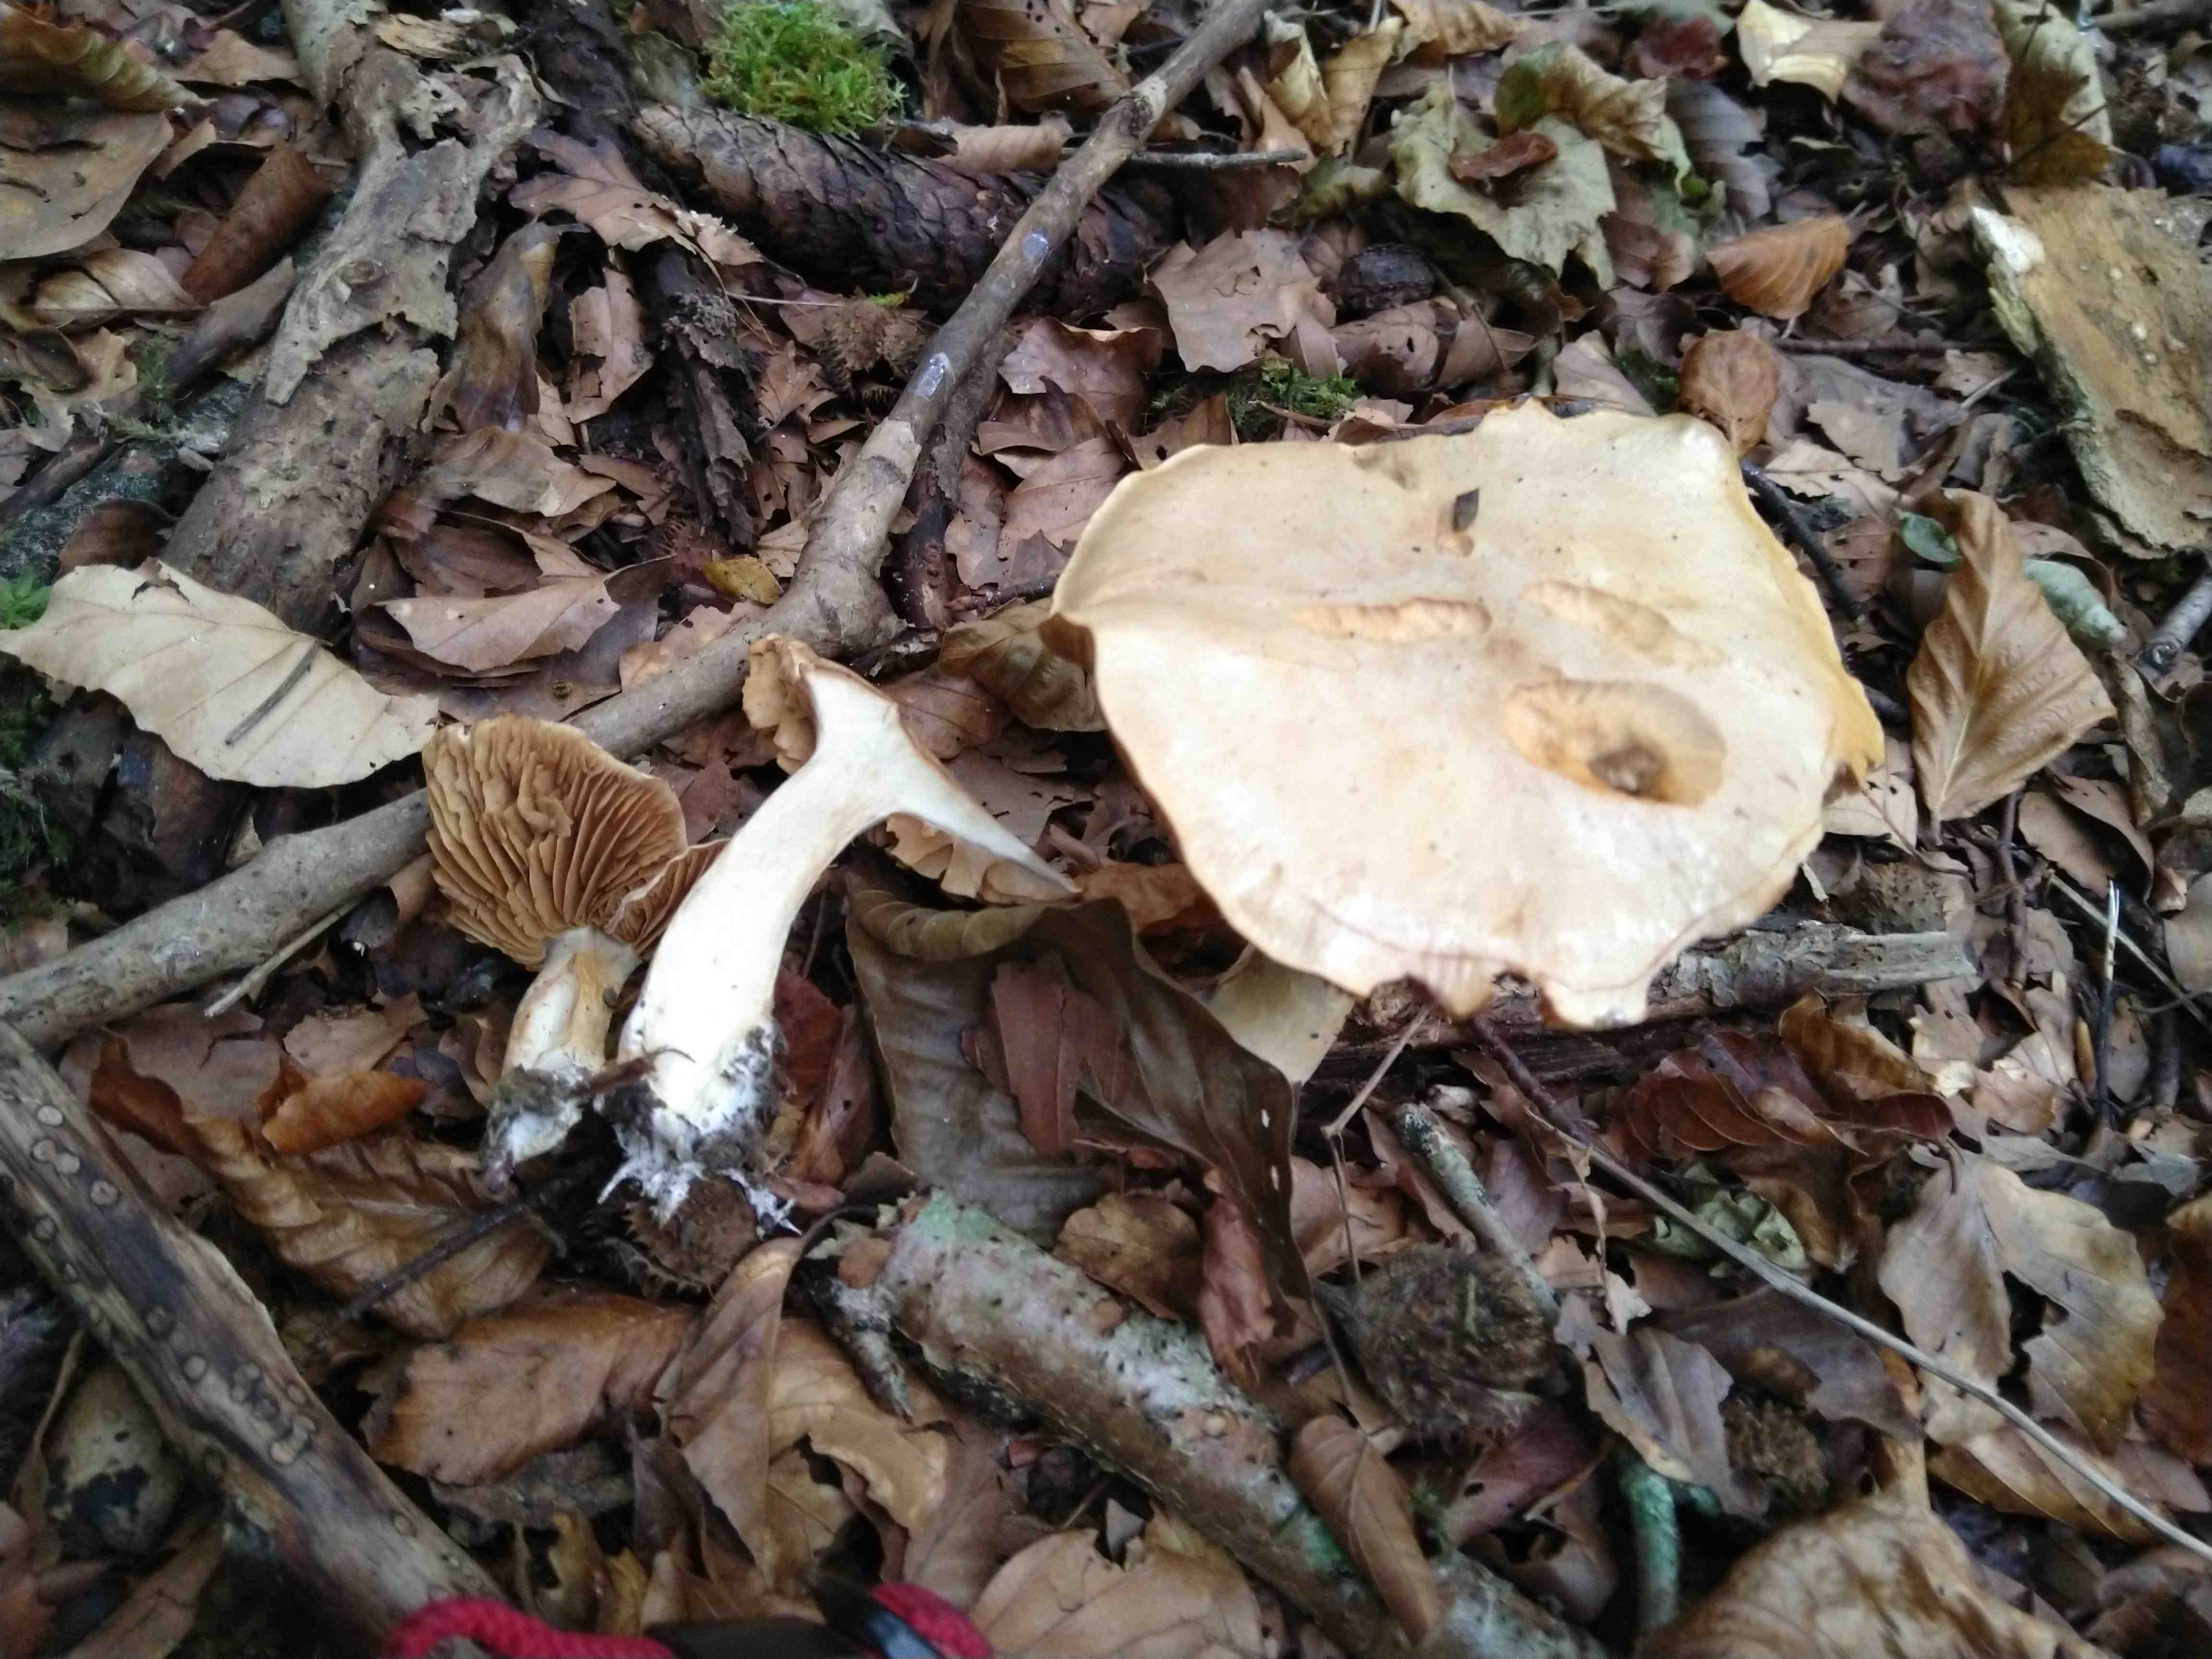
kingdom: Fungi
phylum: Basidiomycota
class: Agaricomycetes
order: Agaricales
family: Cortinariaceae
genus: Cortinarius
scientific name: Cortinarius
